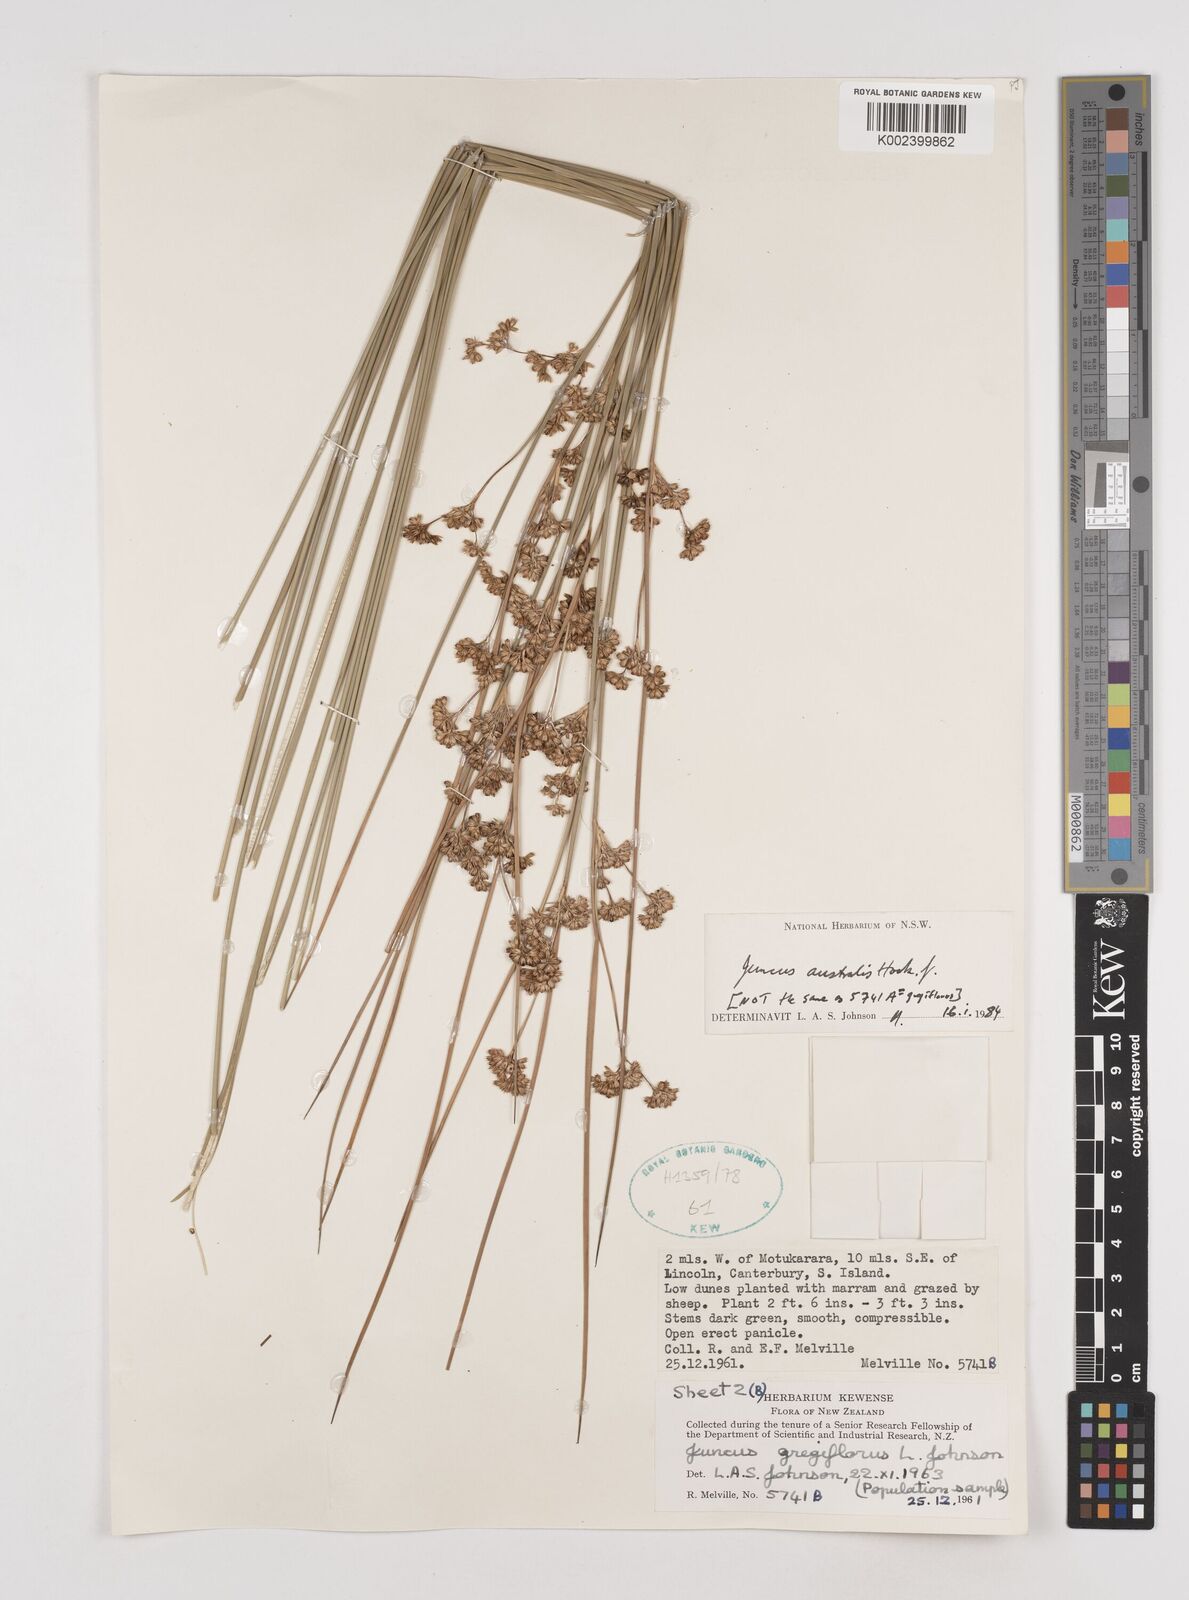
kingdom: Plantae
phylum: Tracheophyta
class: Liliopsida
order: Poales
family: Juncaceae
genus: Juncus
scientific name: Juncus australis
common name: Austral rush
